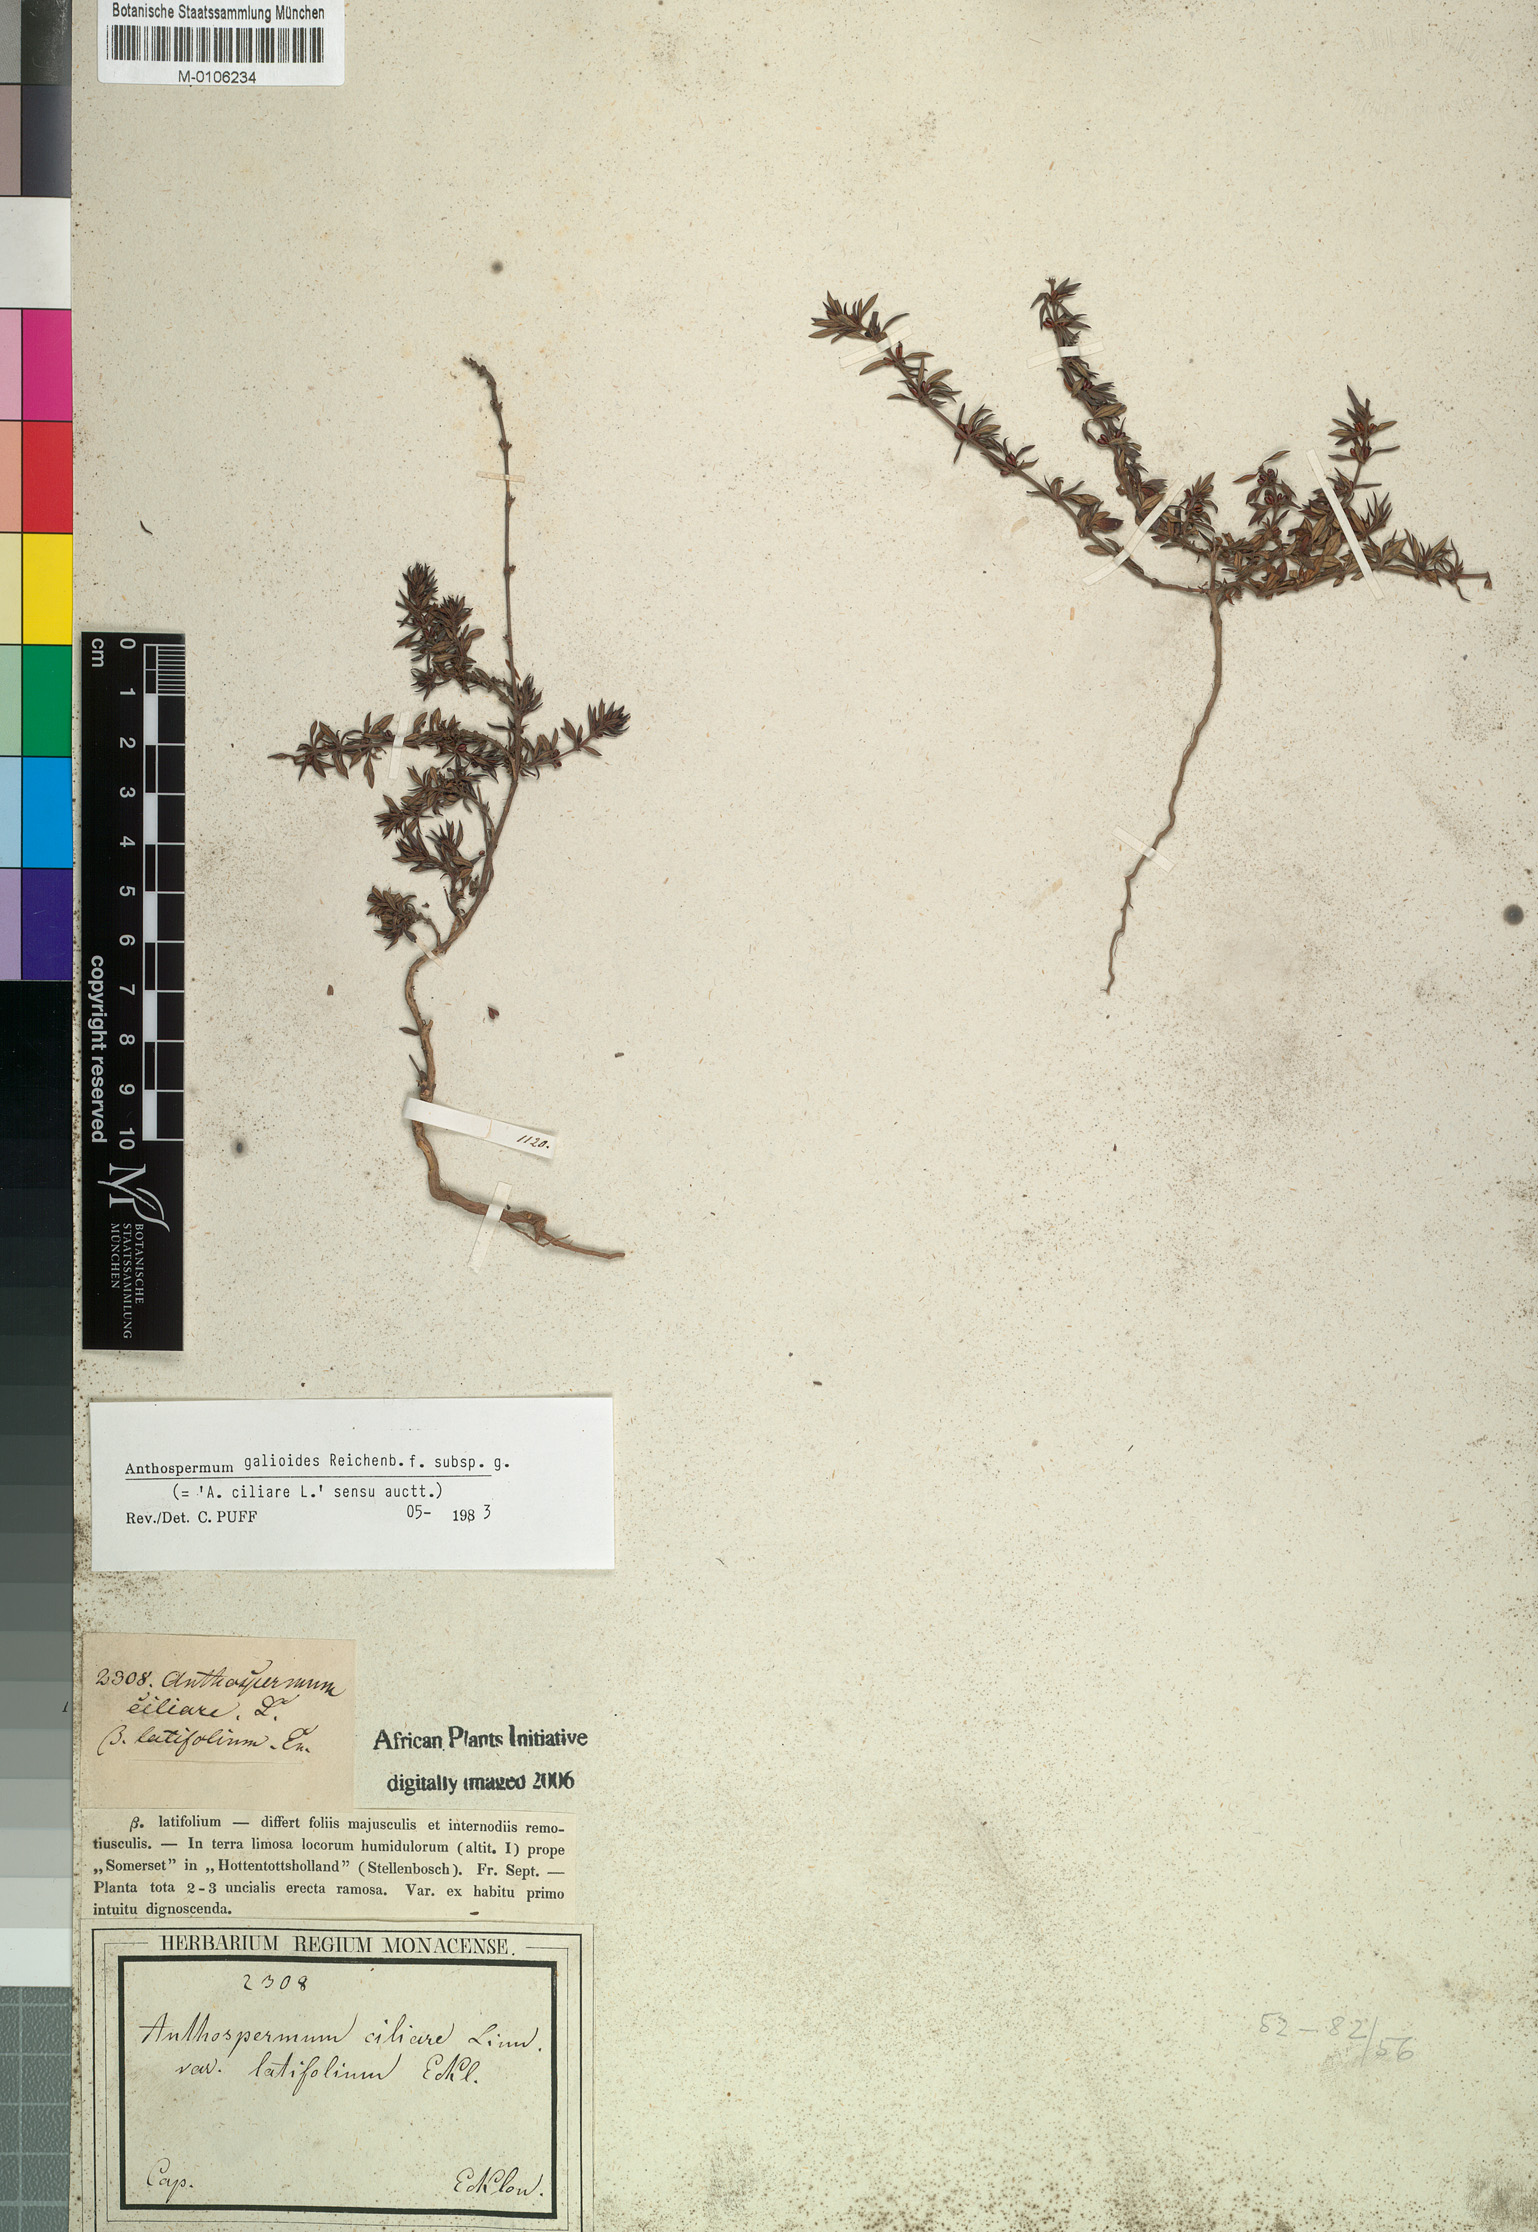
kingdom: Plantae
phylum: Tracheophyta
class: Magnoliopsida
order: Gentianales
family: Rubiaceae
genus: Anthospermum
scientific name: Anthospermum galioides
